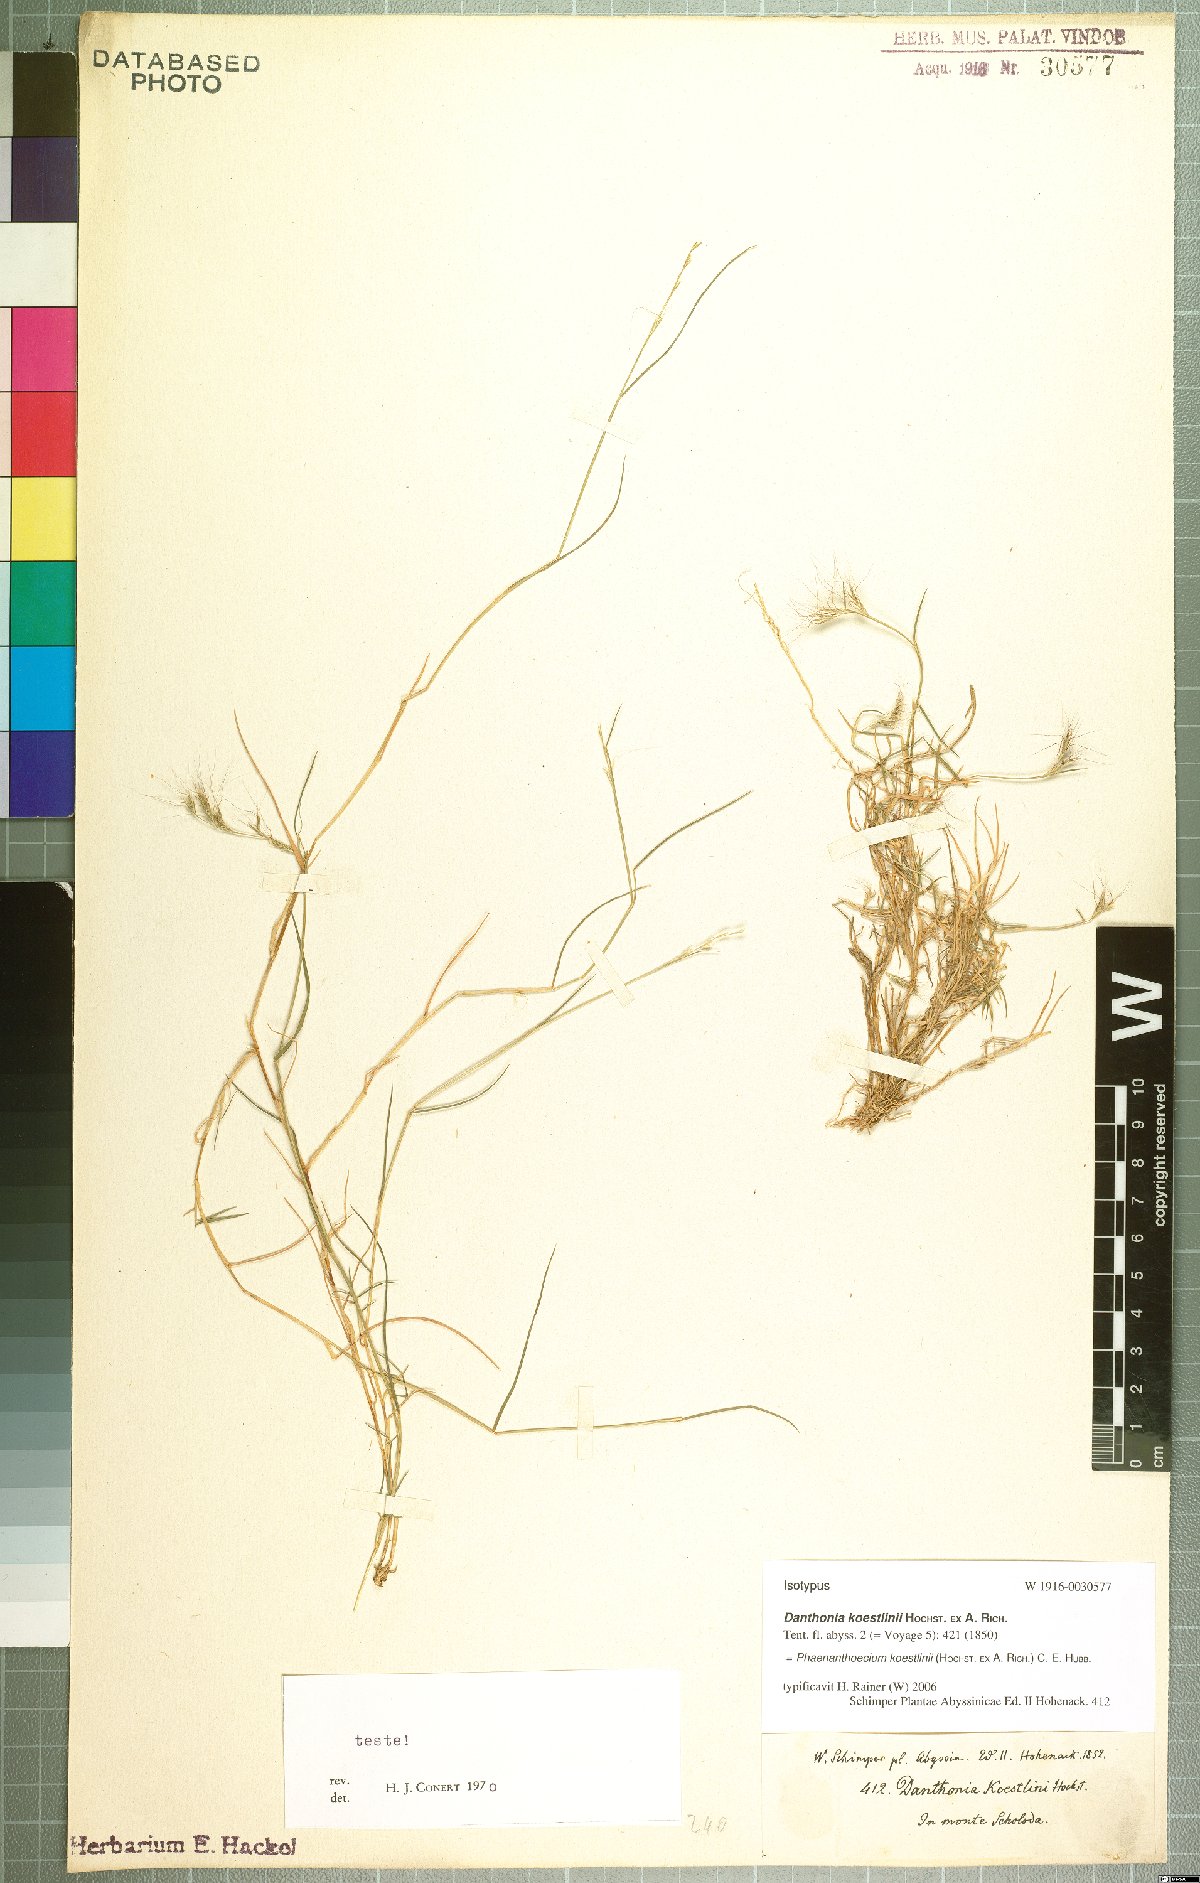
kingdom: Plantae
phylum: Tracheophyta
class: Liliopsida
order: Poales
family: Poaceae
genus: Phaenanthoecium
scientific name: Phaenanthoecium koestlinii
